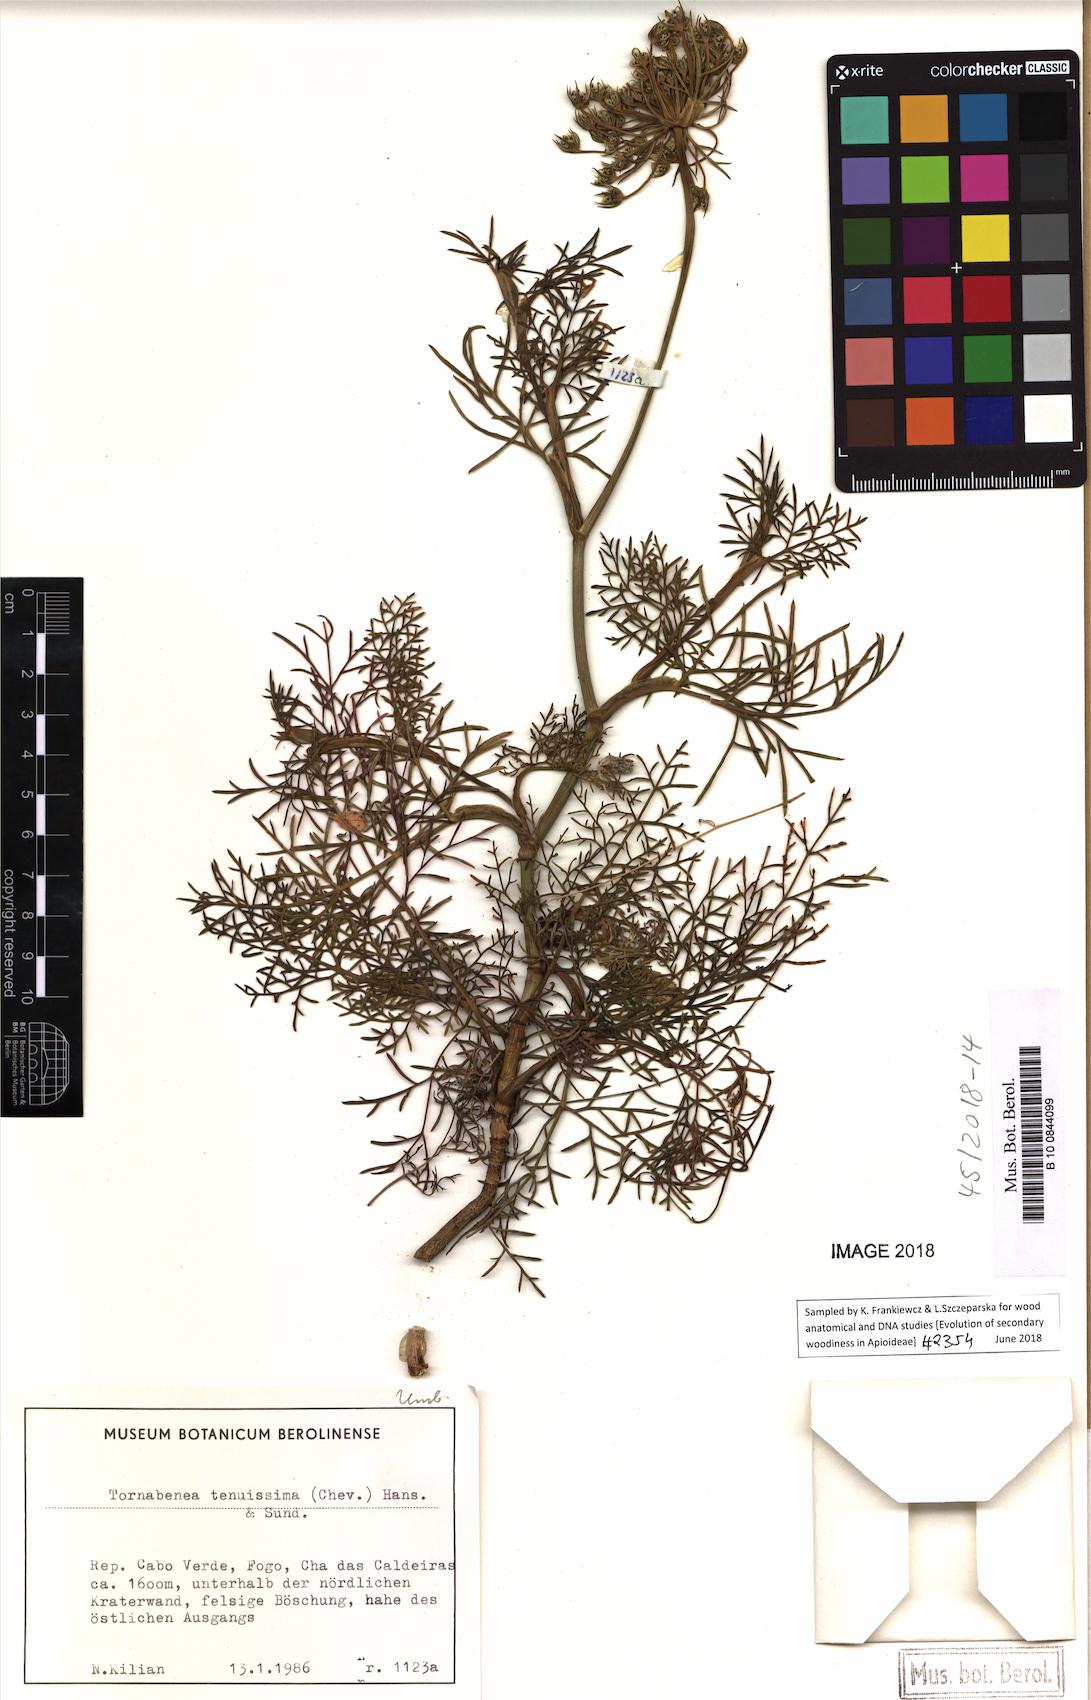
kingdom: Plantae
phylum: Tracheophyta
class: Magnoliopsida
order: Apiales
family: Apiaceae
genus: Daucus
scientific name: Daucus carota
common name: Wild carrot
